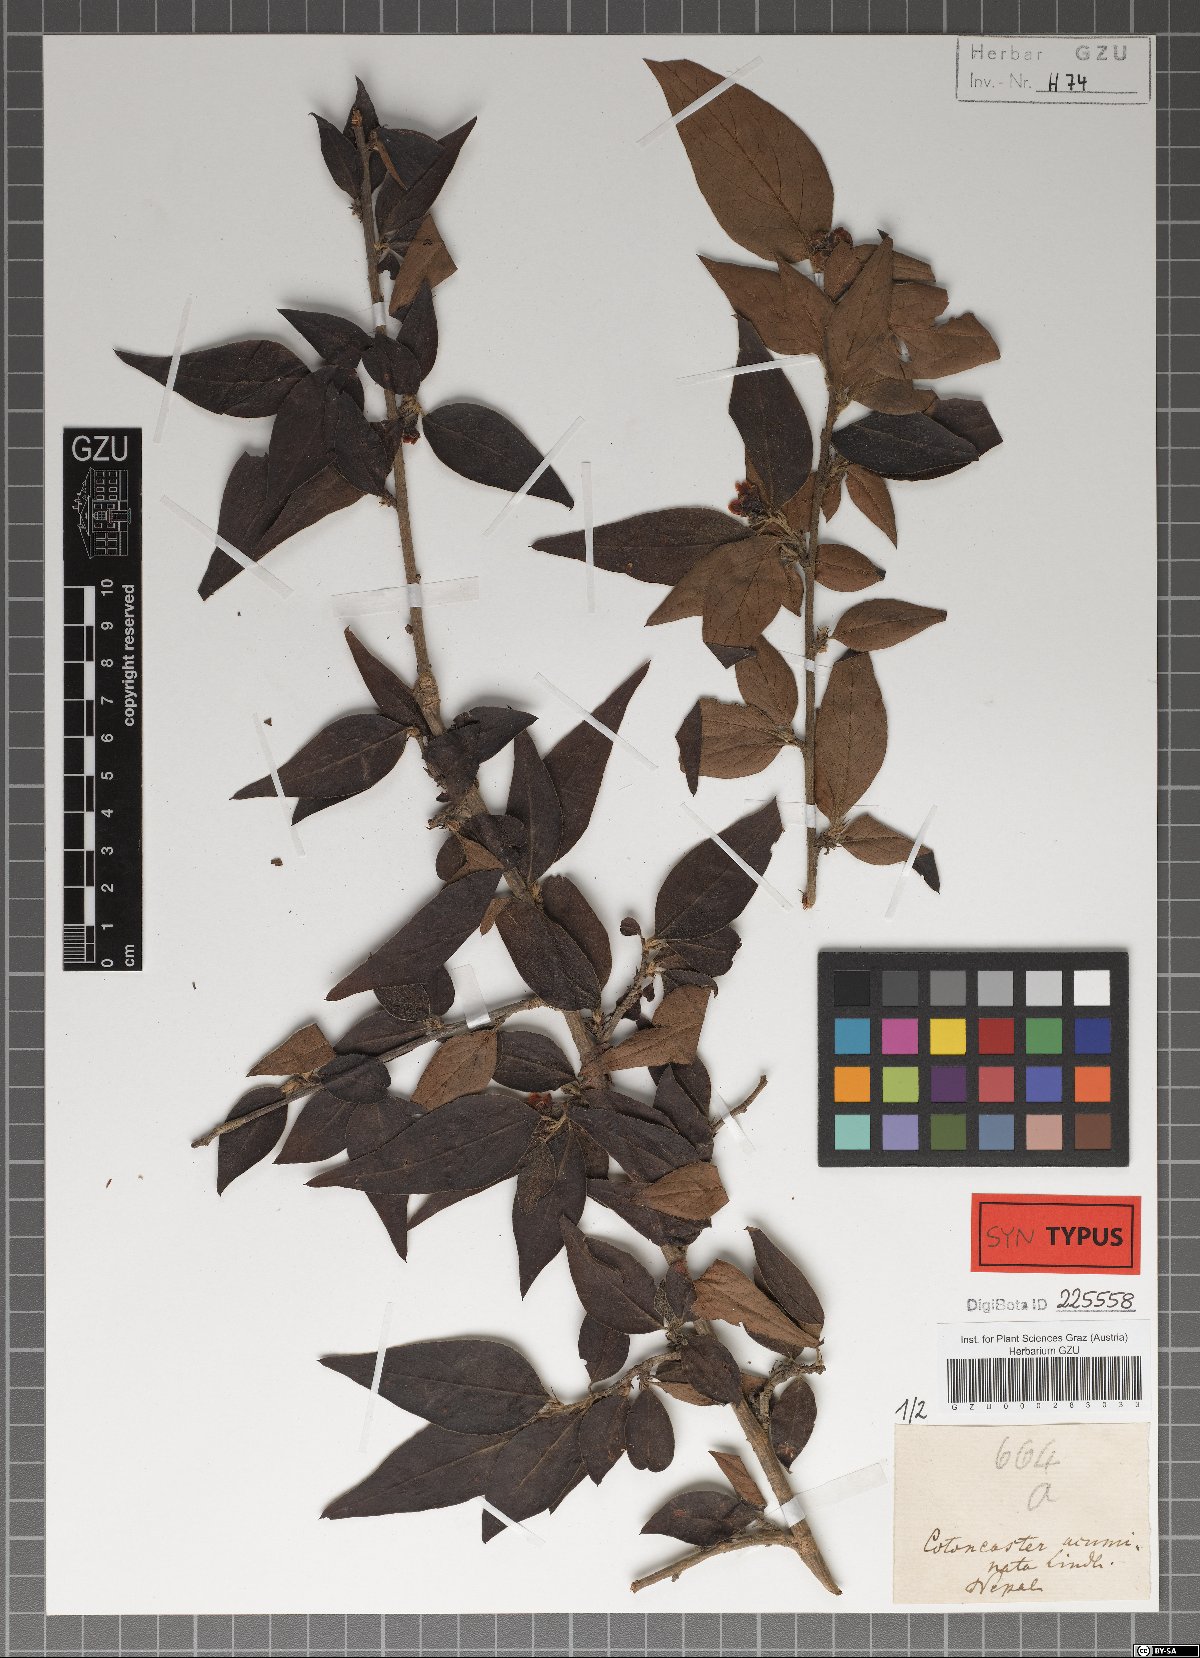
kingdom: Plantae
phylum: Tracheophyta
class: Magnoliopsida
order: Rosales
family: Rosaceae
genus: Cotoneaster
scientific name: Cotoneaster acuminatus
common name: Acuminate cotoneaster
